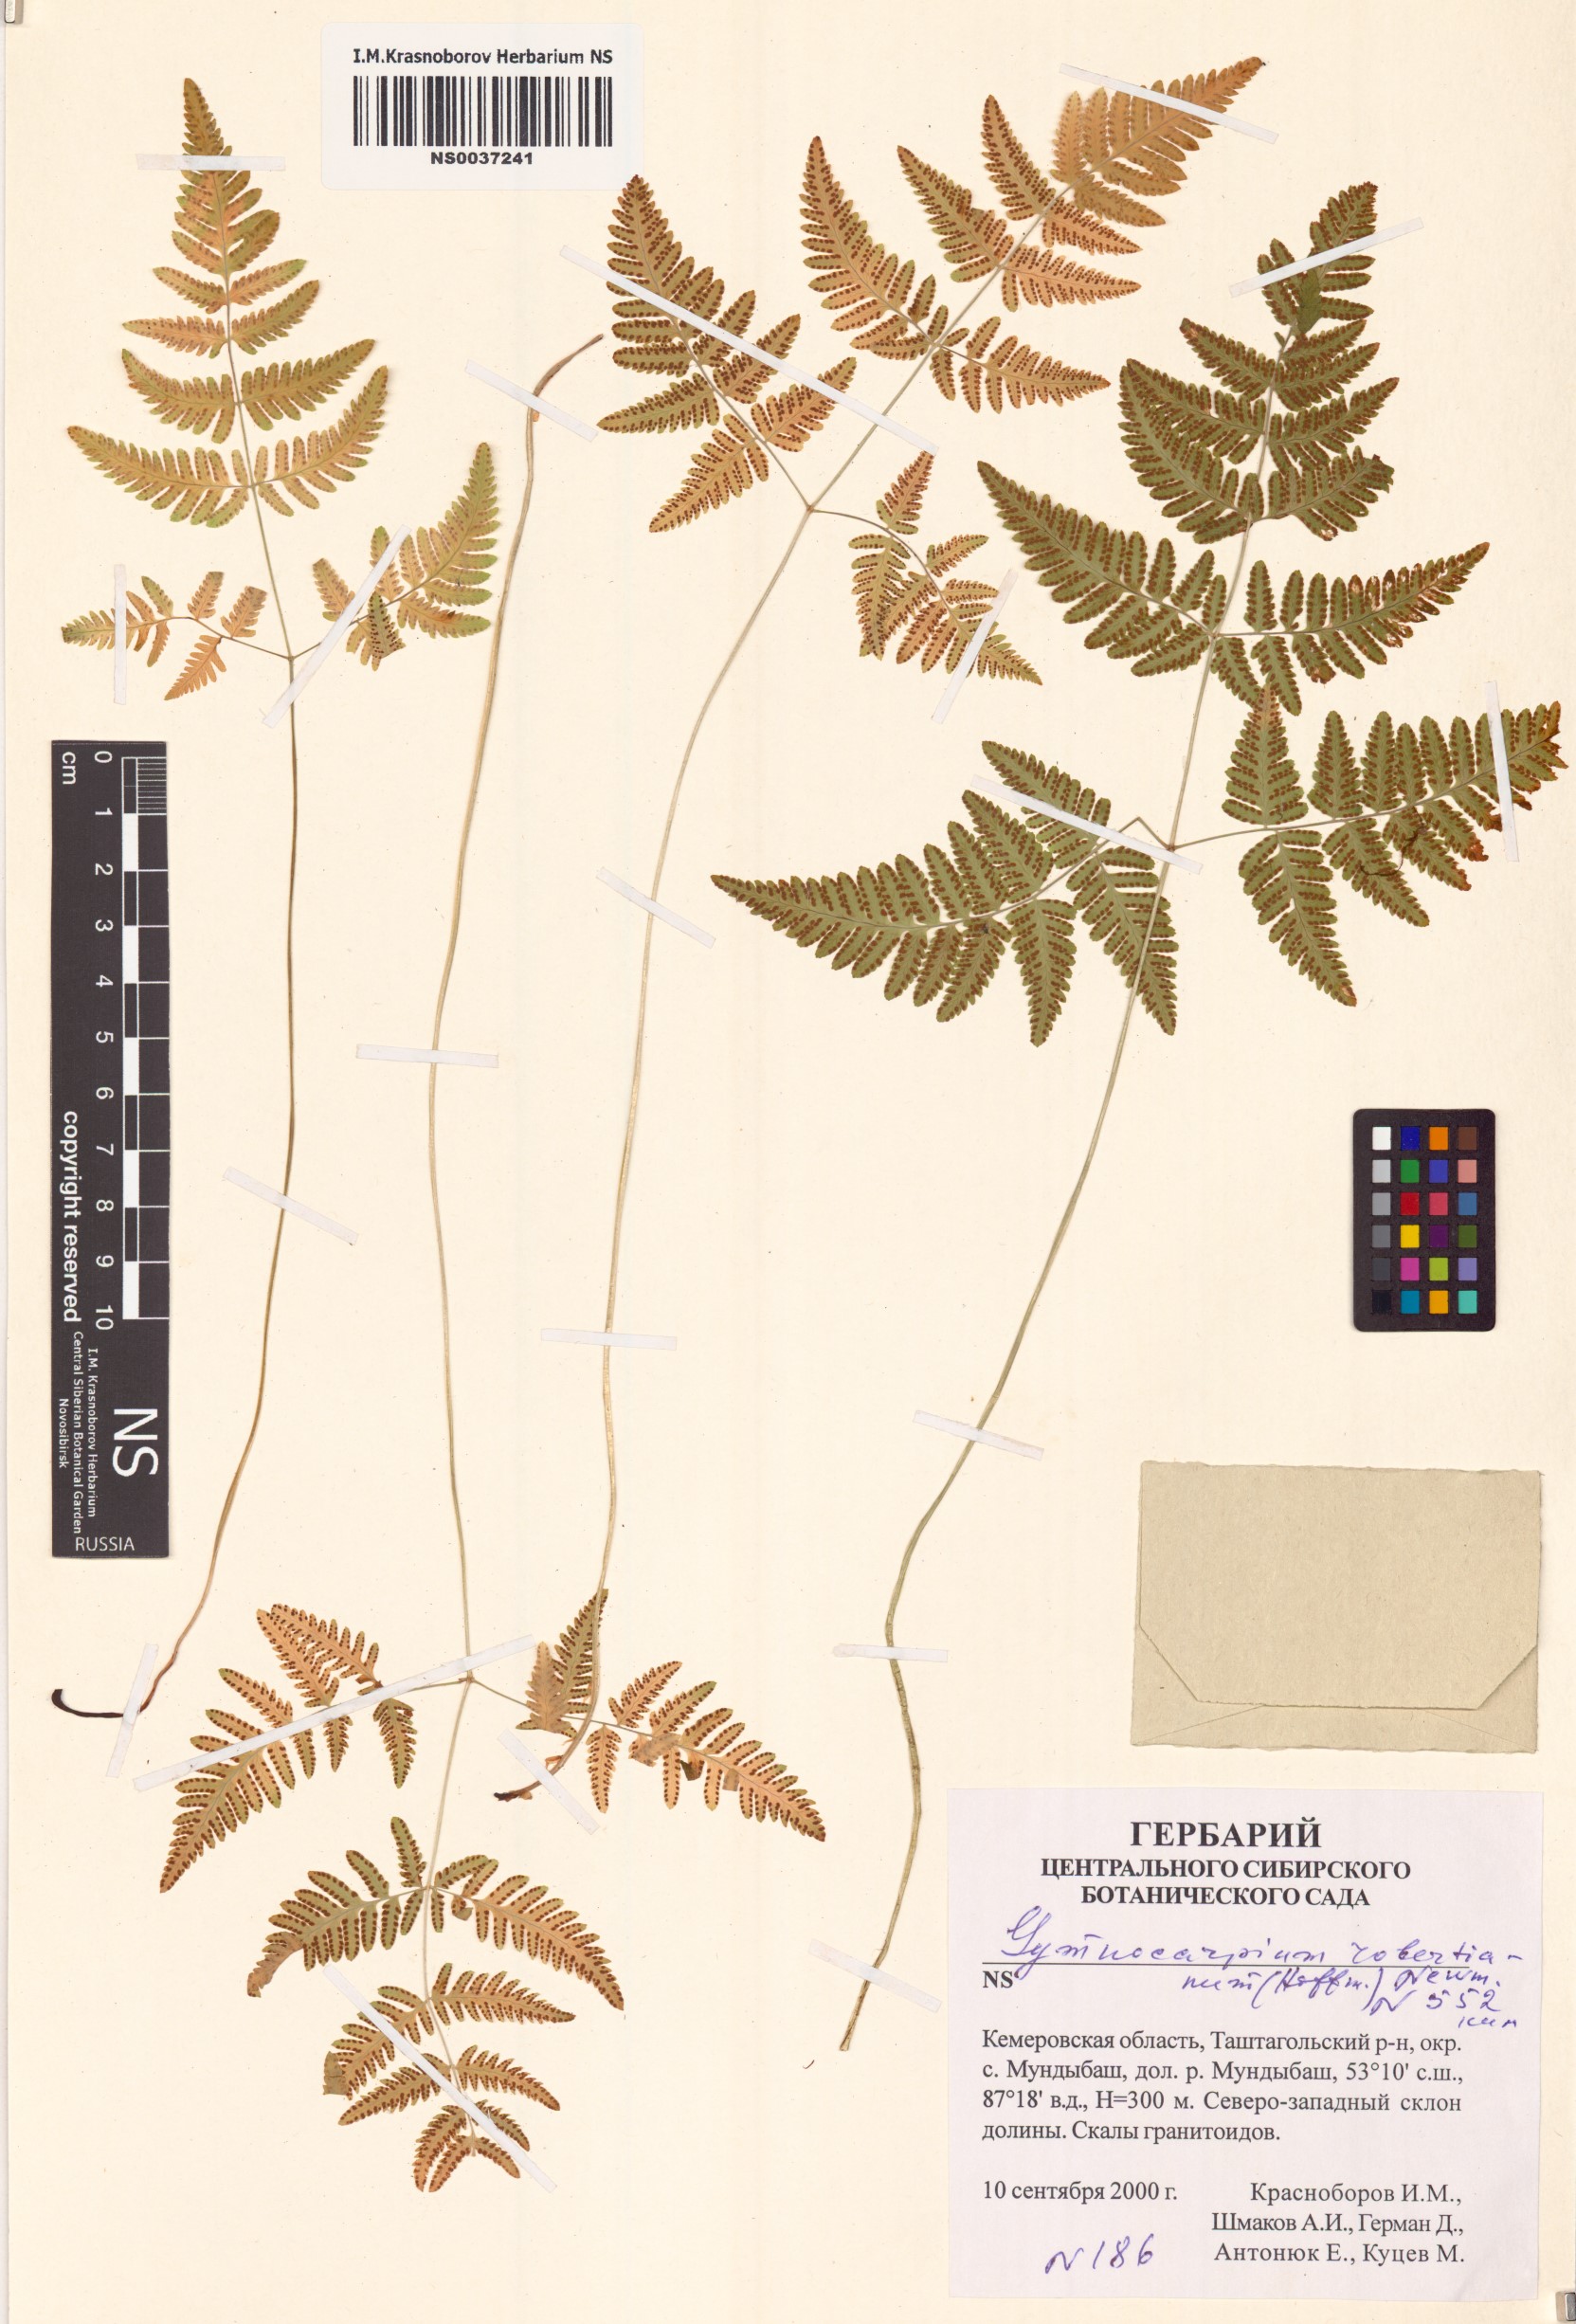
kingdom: Plantae
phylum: Tracheophyta
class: Polypodiopsida
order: Polypodiales
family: Cystopteridaceae
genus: Gymnocarpium
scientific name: Gymnocarpium robertianum
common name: Limestone fern
